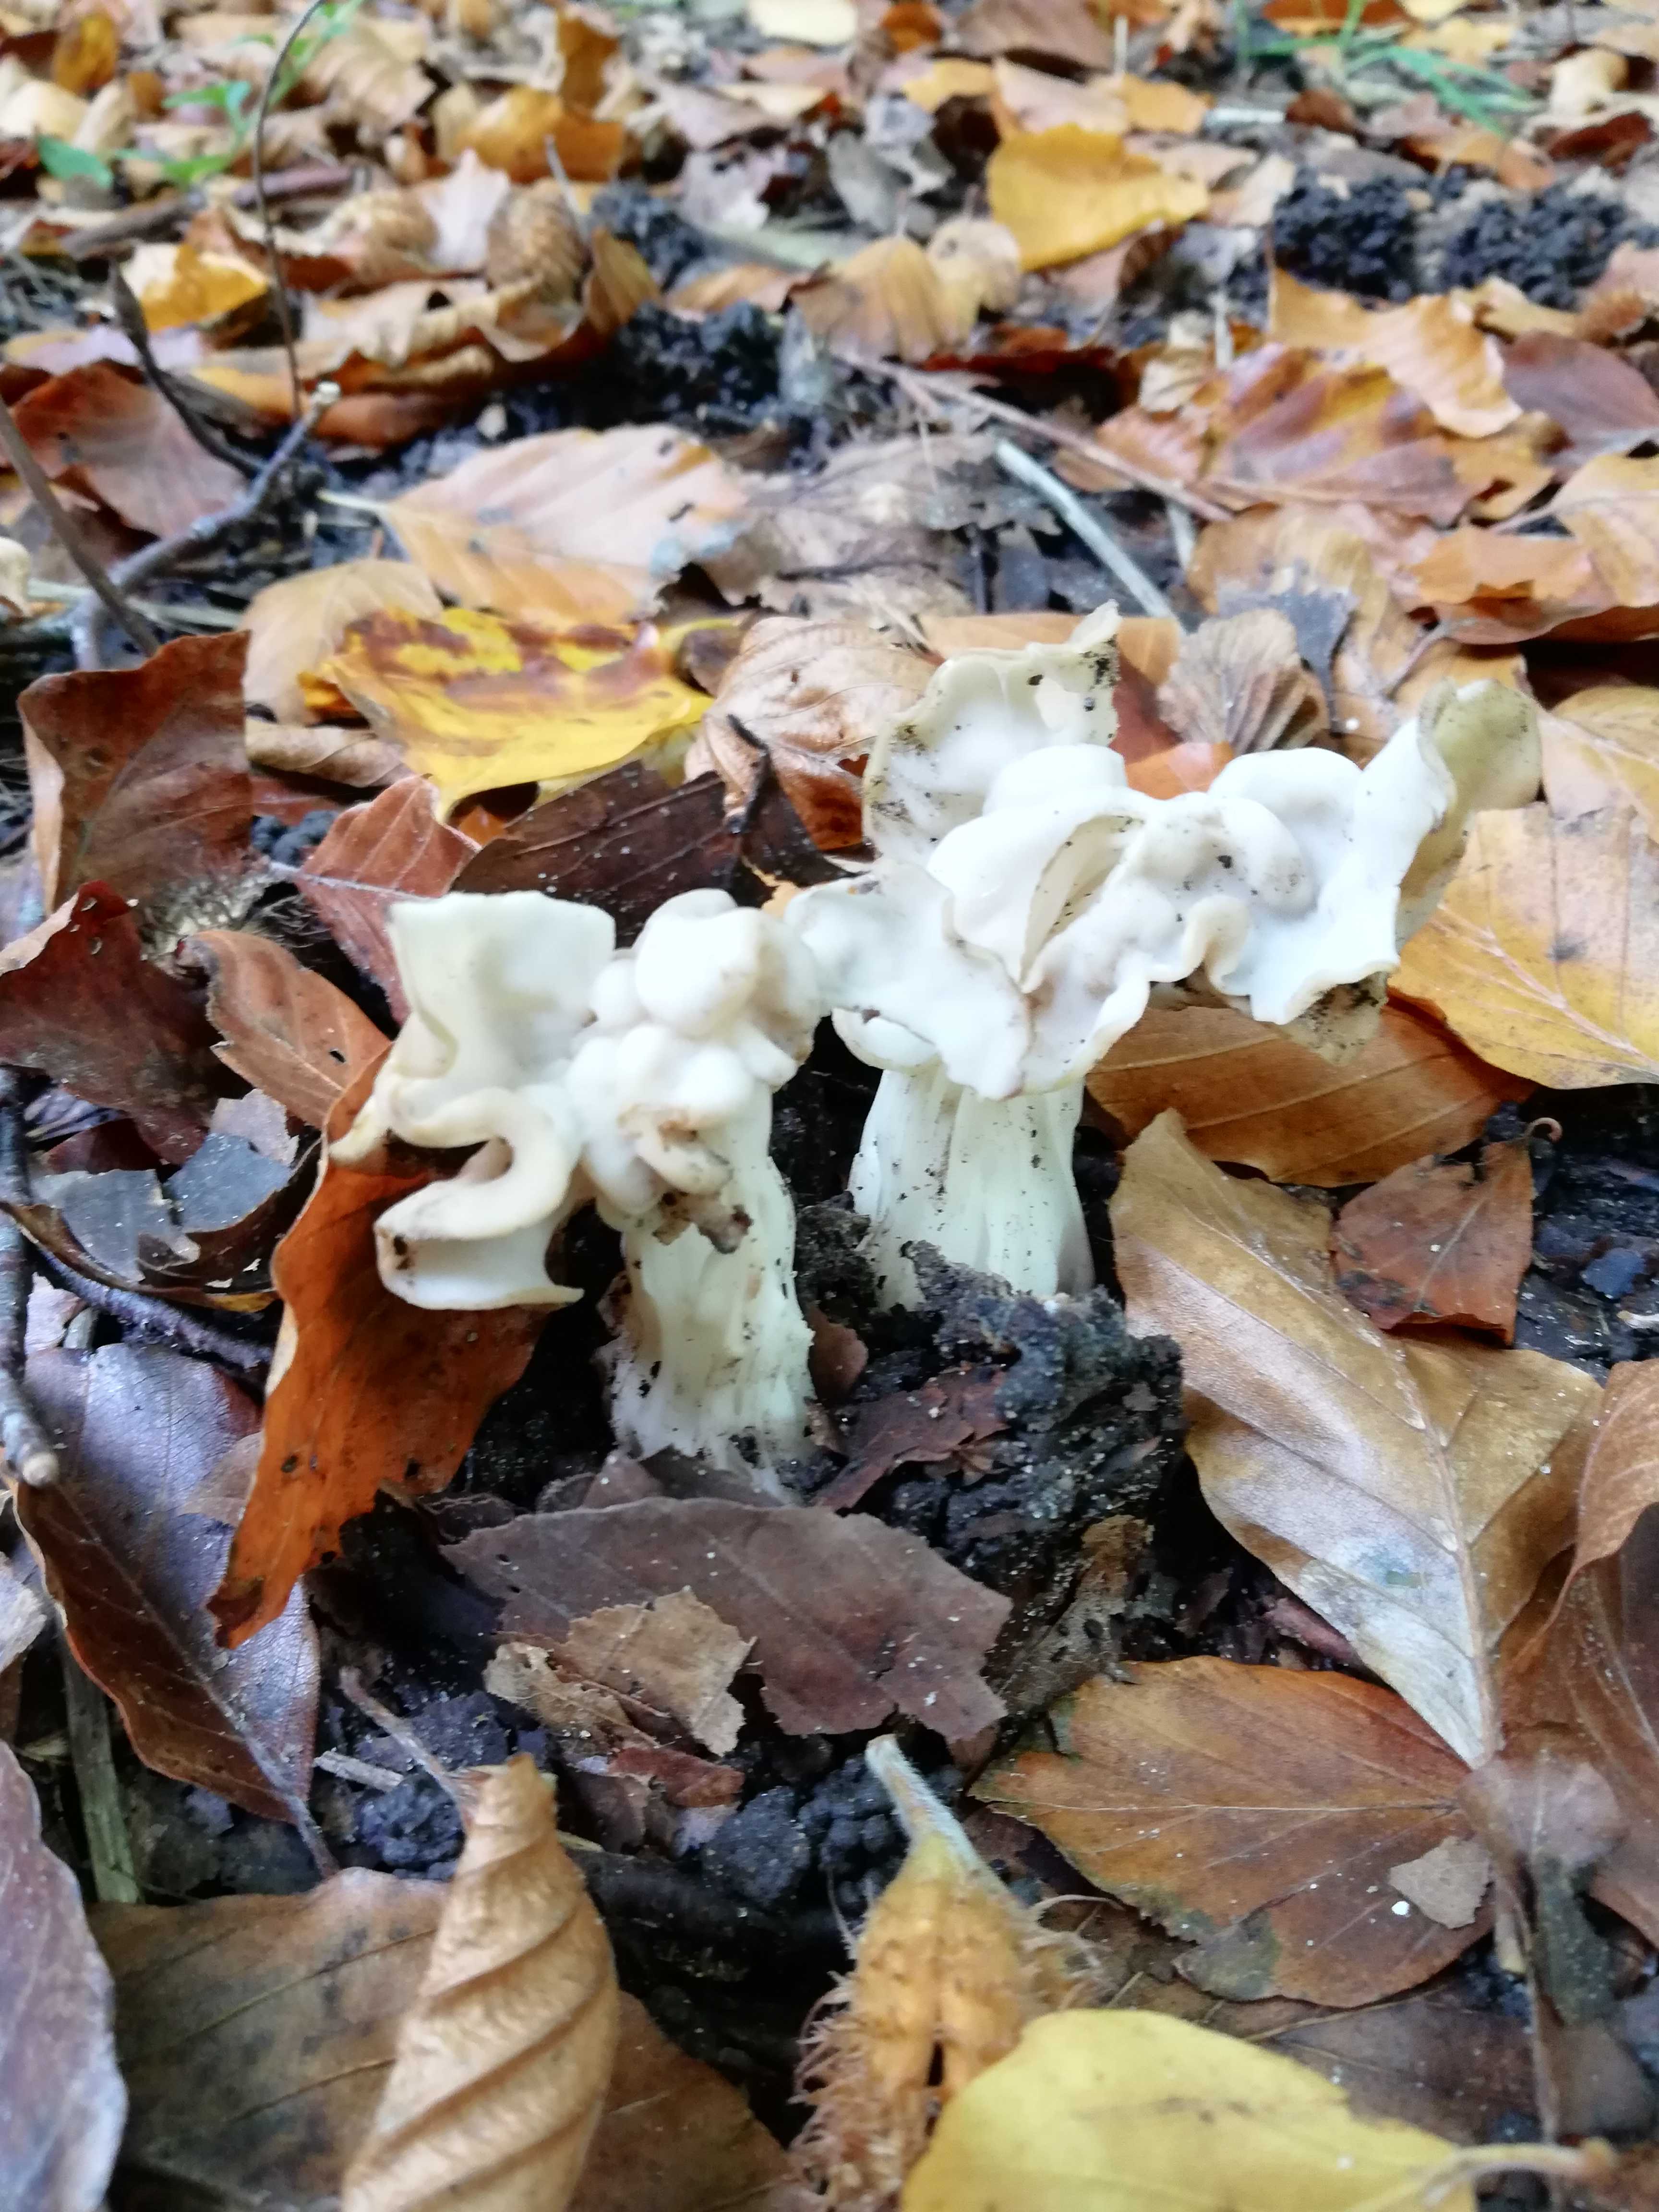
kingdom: Fungi
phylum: Ascomycota
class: Pezizomycetes
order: Pezizales
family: Helvellaceae
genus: Helvella
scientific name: Helvella crispa
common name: kruset foldhat
